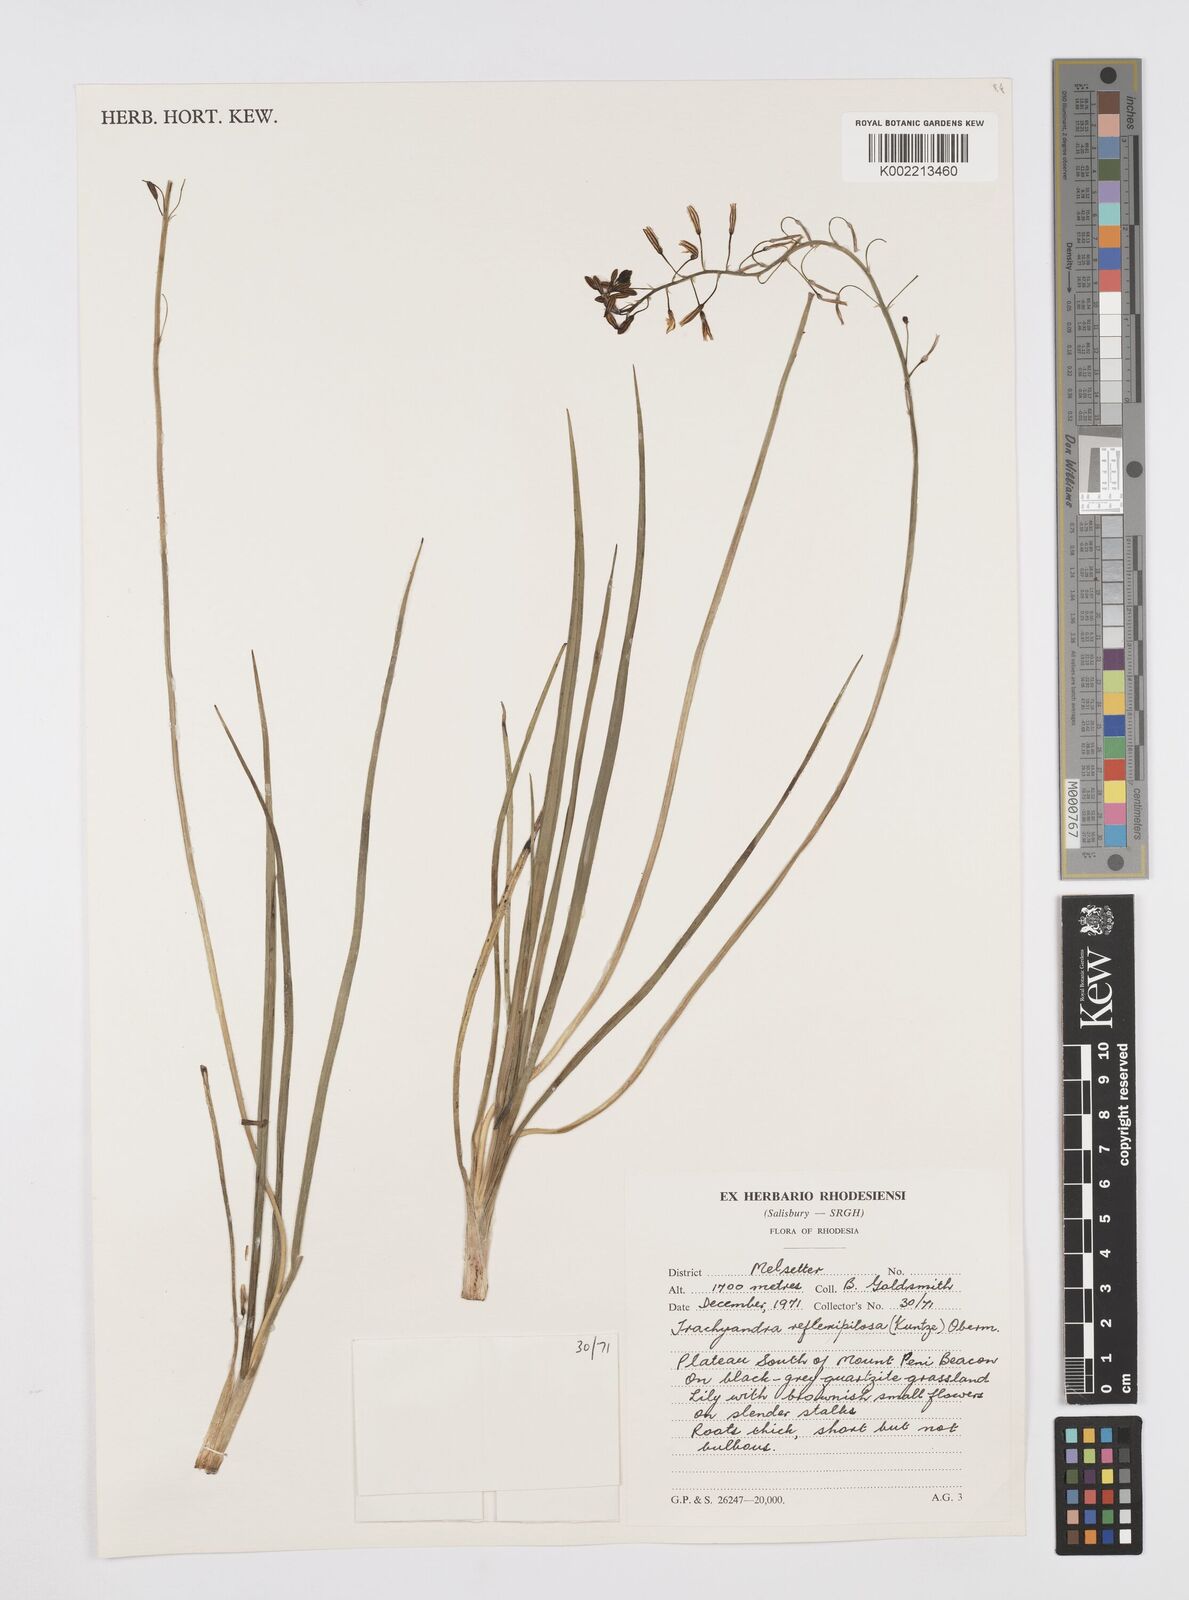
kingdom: Plantae
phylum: Tracheophyta
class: Liliopsida
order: Asparagales
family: Asphodelaceae
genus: Trachyandra
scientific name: Trachyandra saltii
